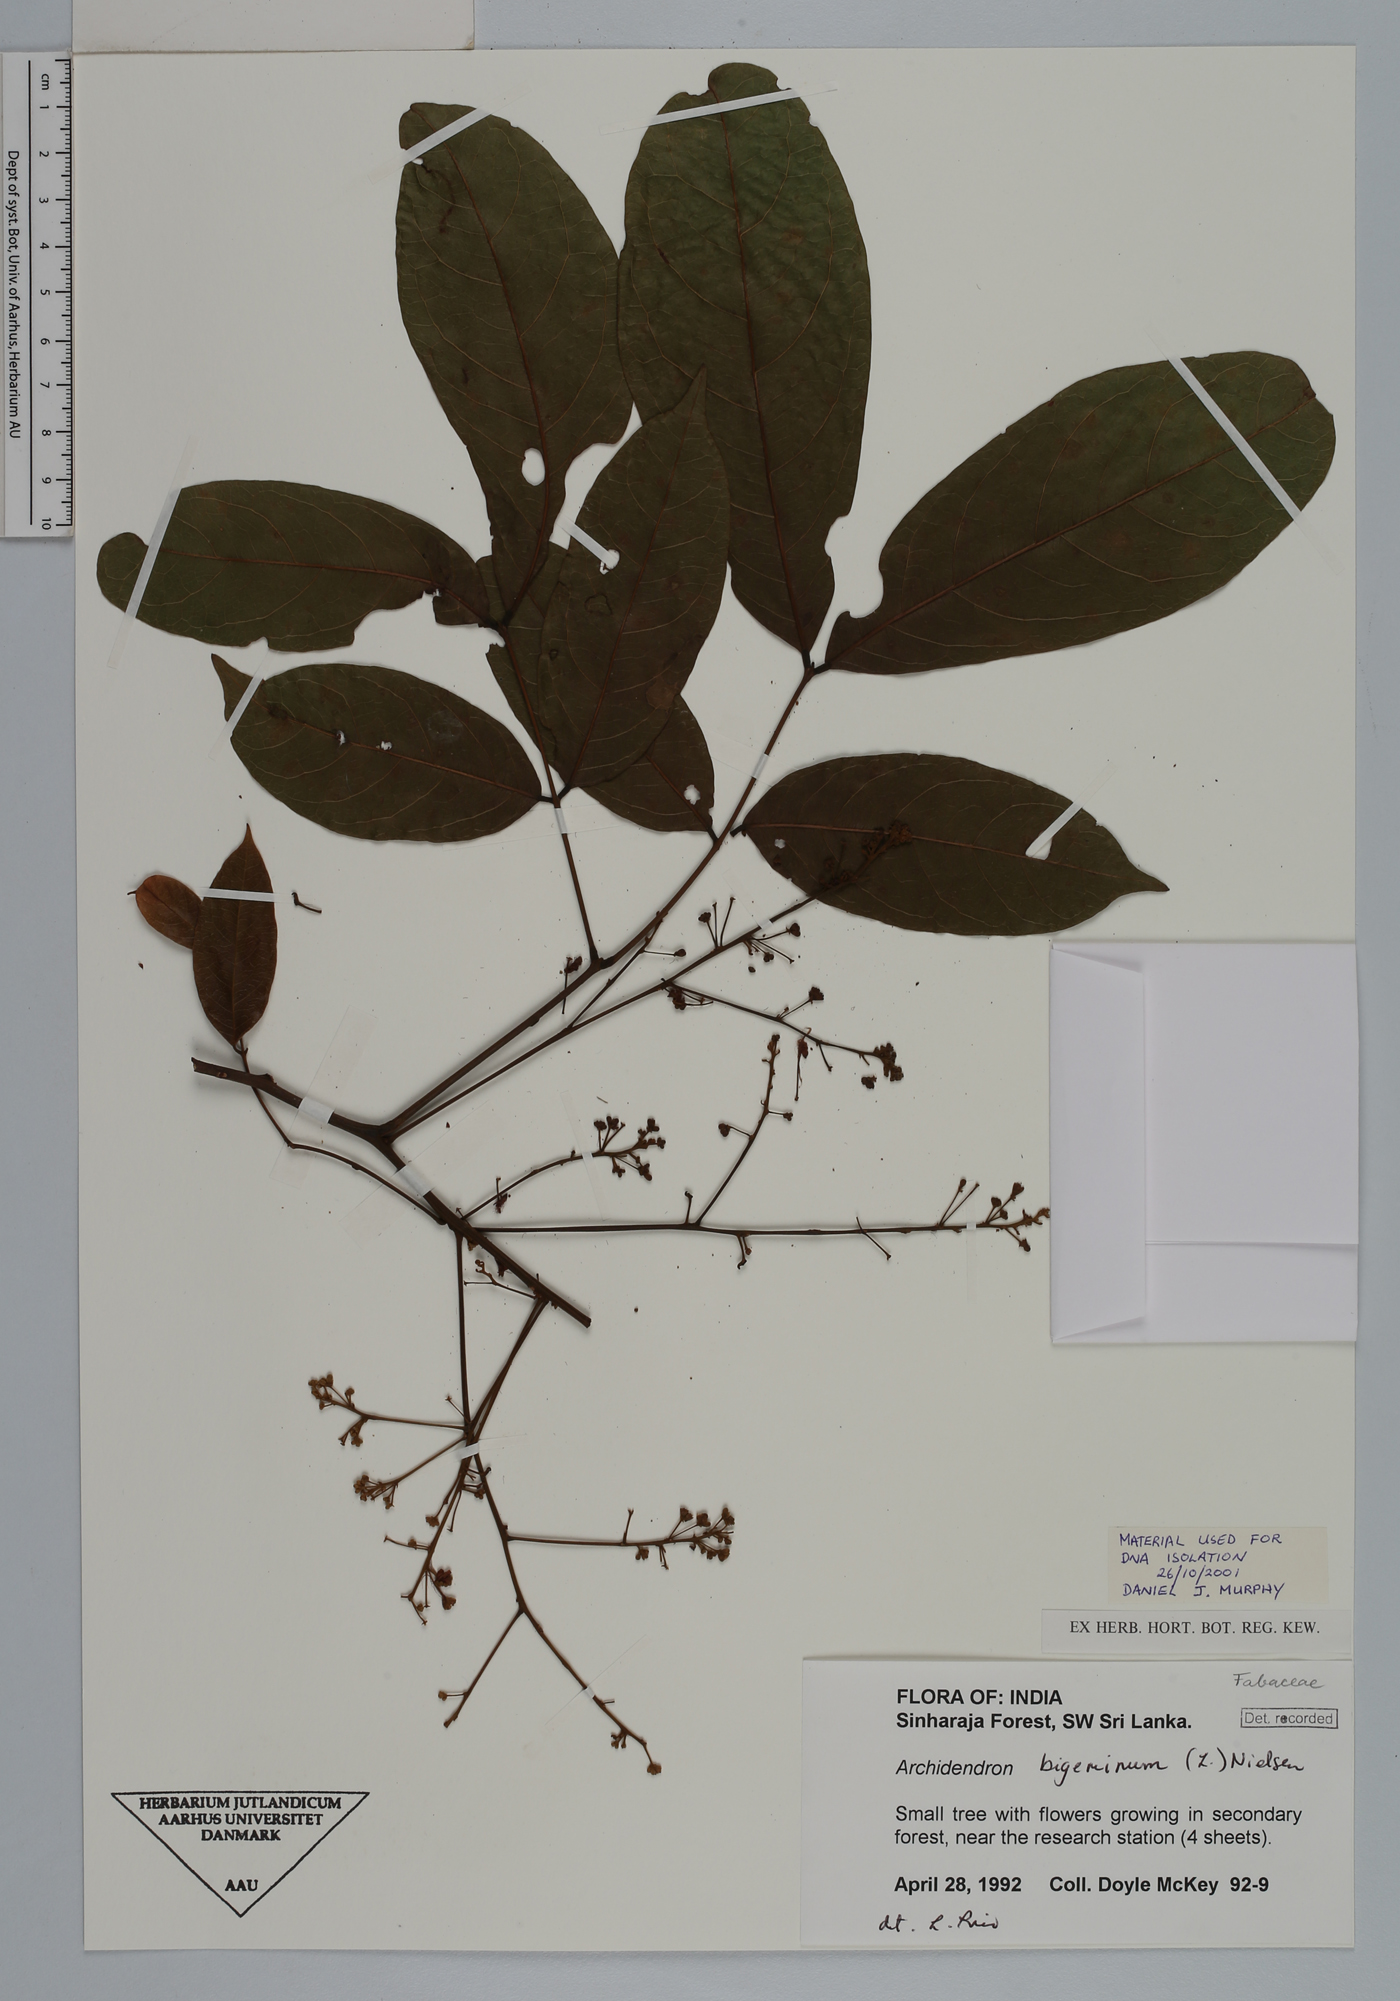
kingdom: Plantae
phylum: Tracheophyta
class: Magnoliopsida
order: Fabales
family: Fabaceae
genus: Archidendron
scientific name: Archidendron bigeminum
